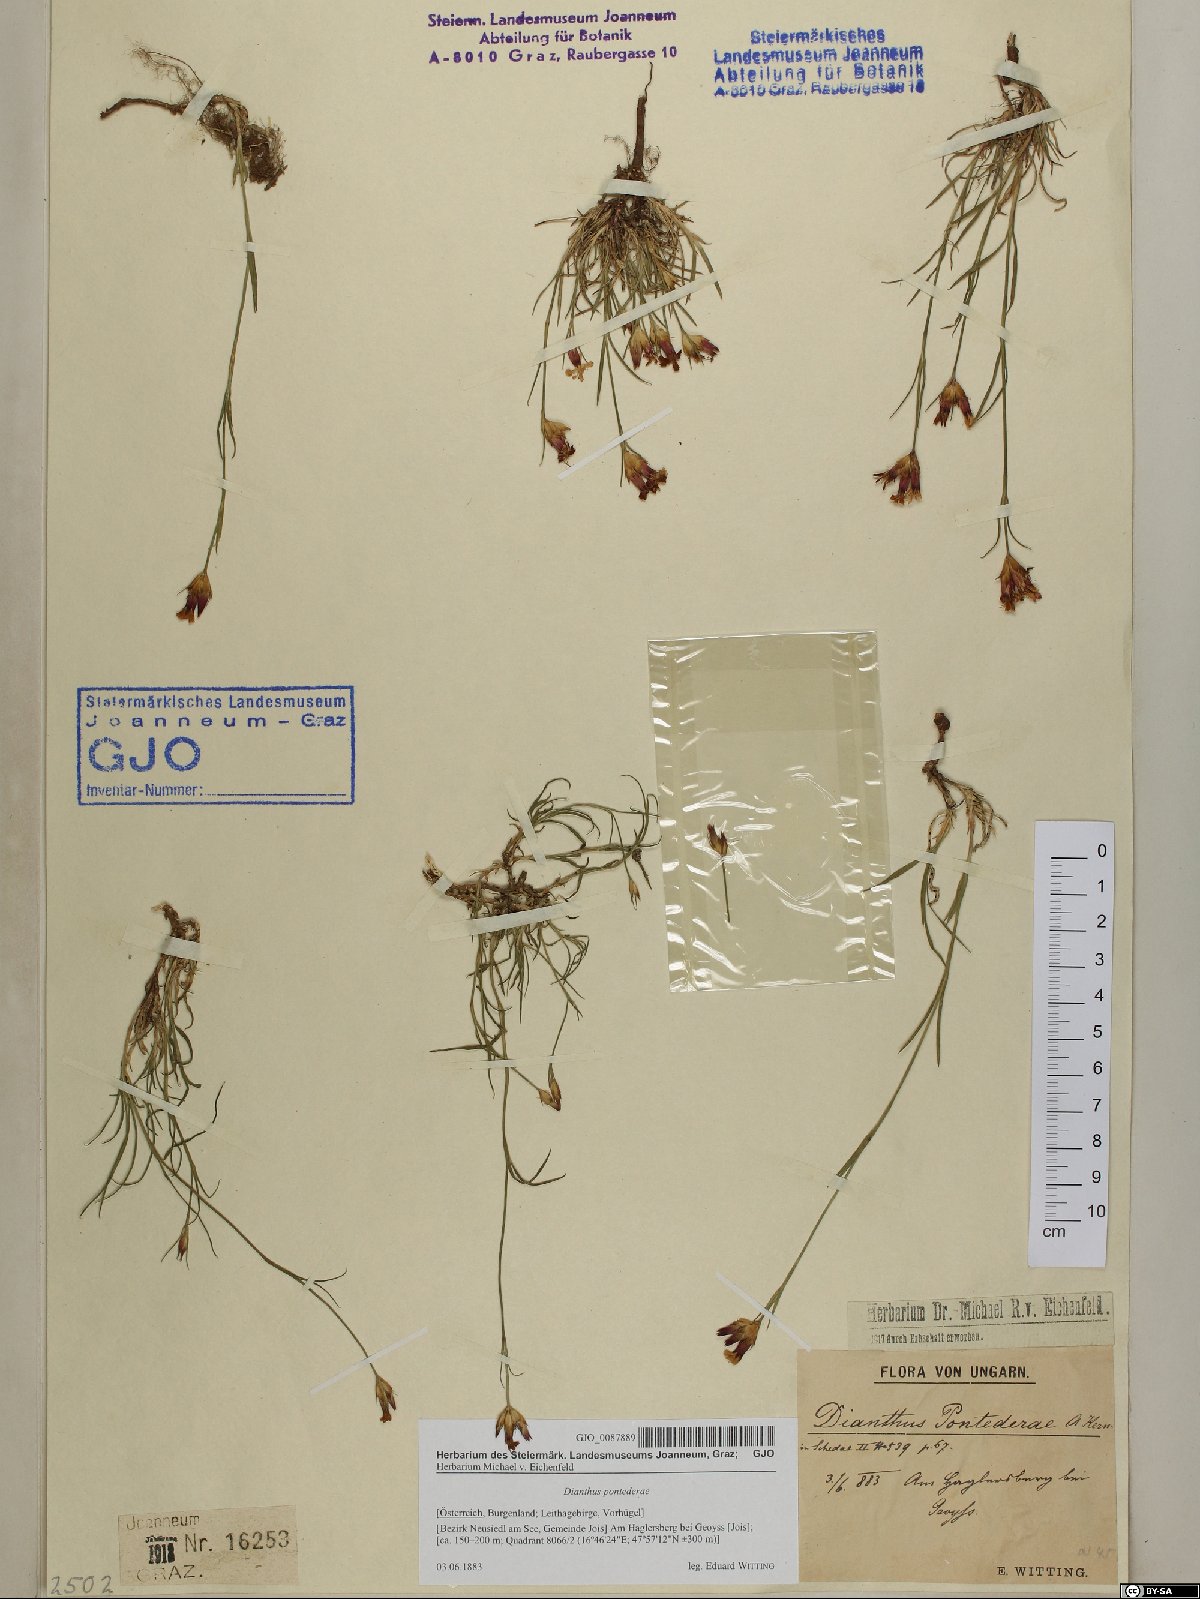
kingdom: Plantae
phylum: Tracheophyta
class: Magnoliopsida
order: Caryophyllales
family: Caryophyllaceae
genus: Dianthus
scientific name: Dianthus pontederae
